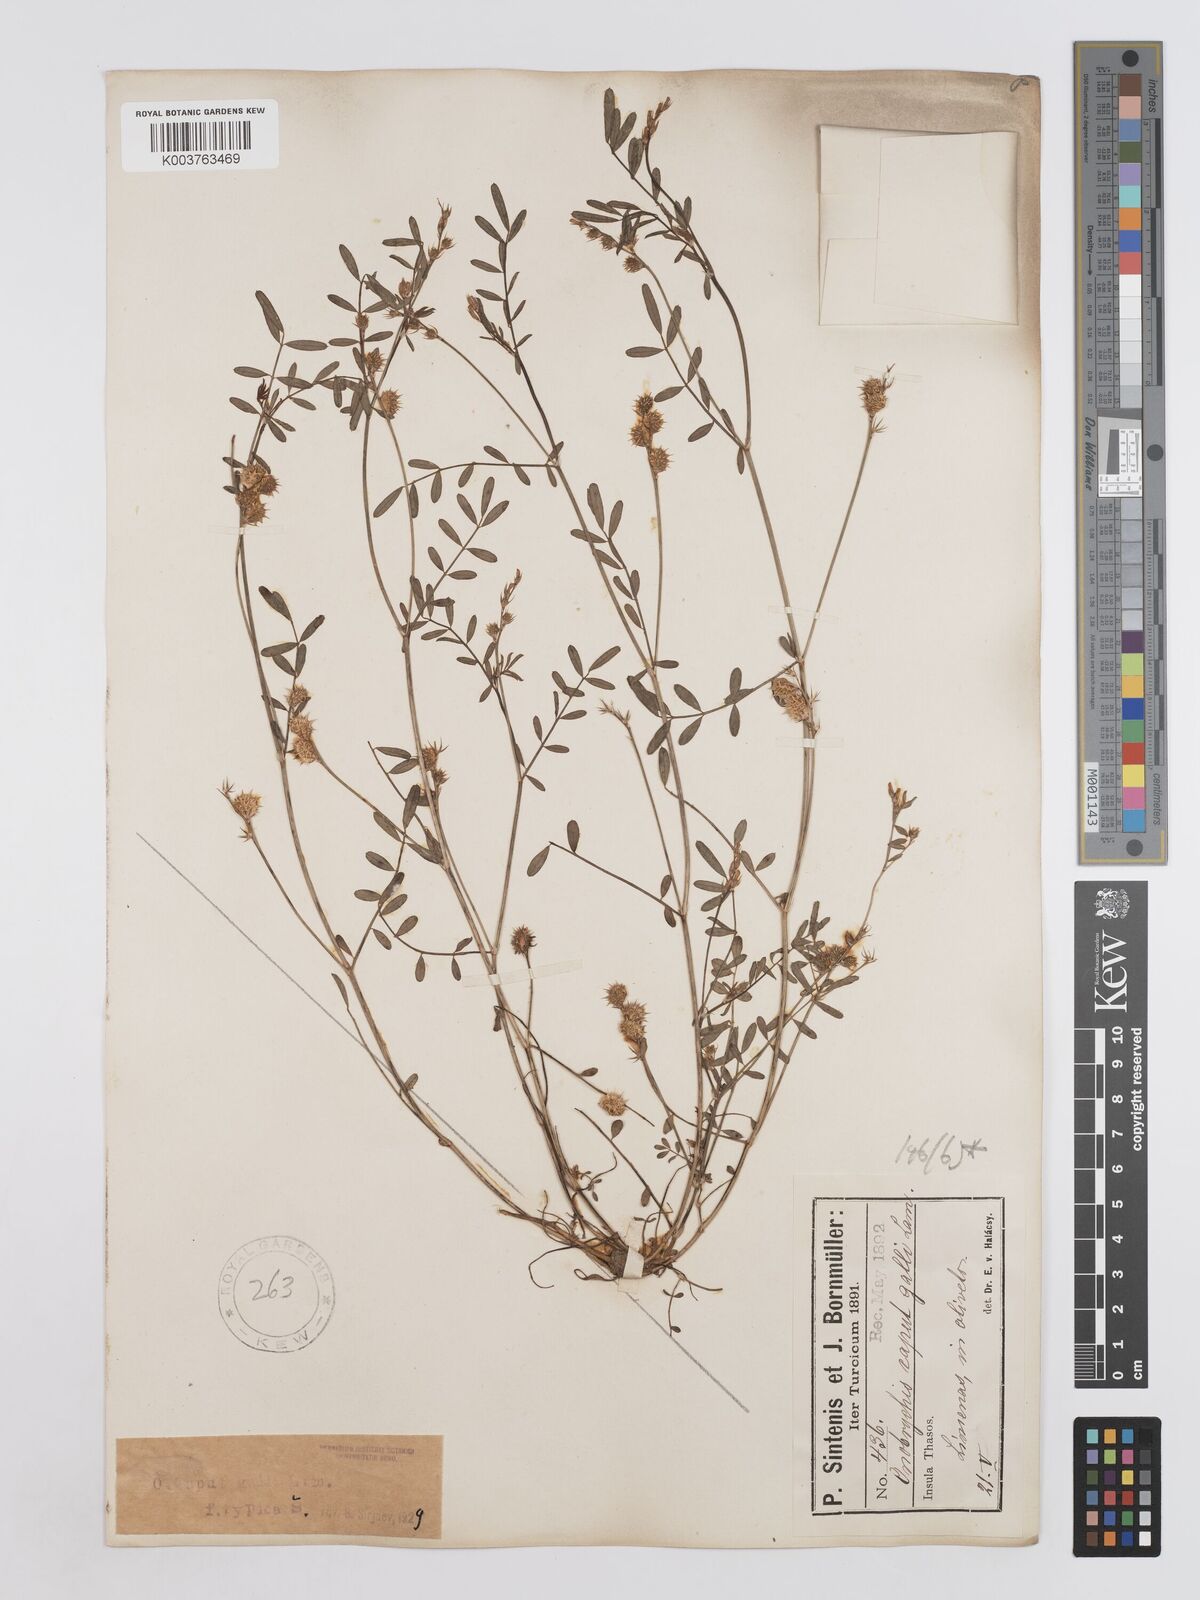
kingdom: Plantae
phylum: Tracheophyta
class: Magnoliopsida
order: Fabales
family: Fabaceae
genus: Onobrychis
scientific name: Onobrychis caput-galli
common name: Cockscomb sainfoin
